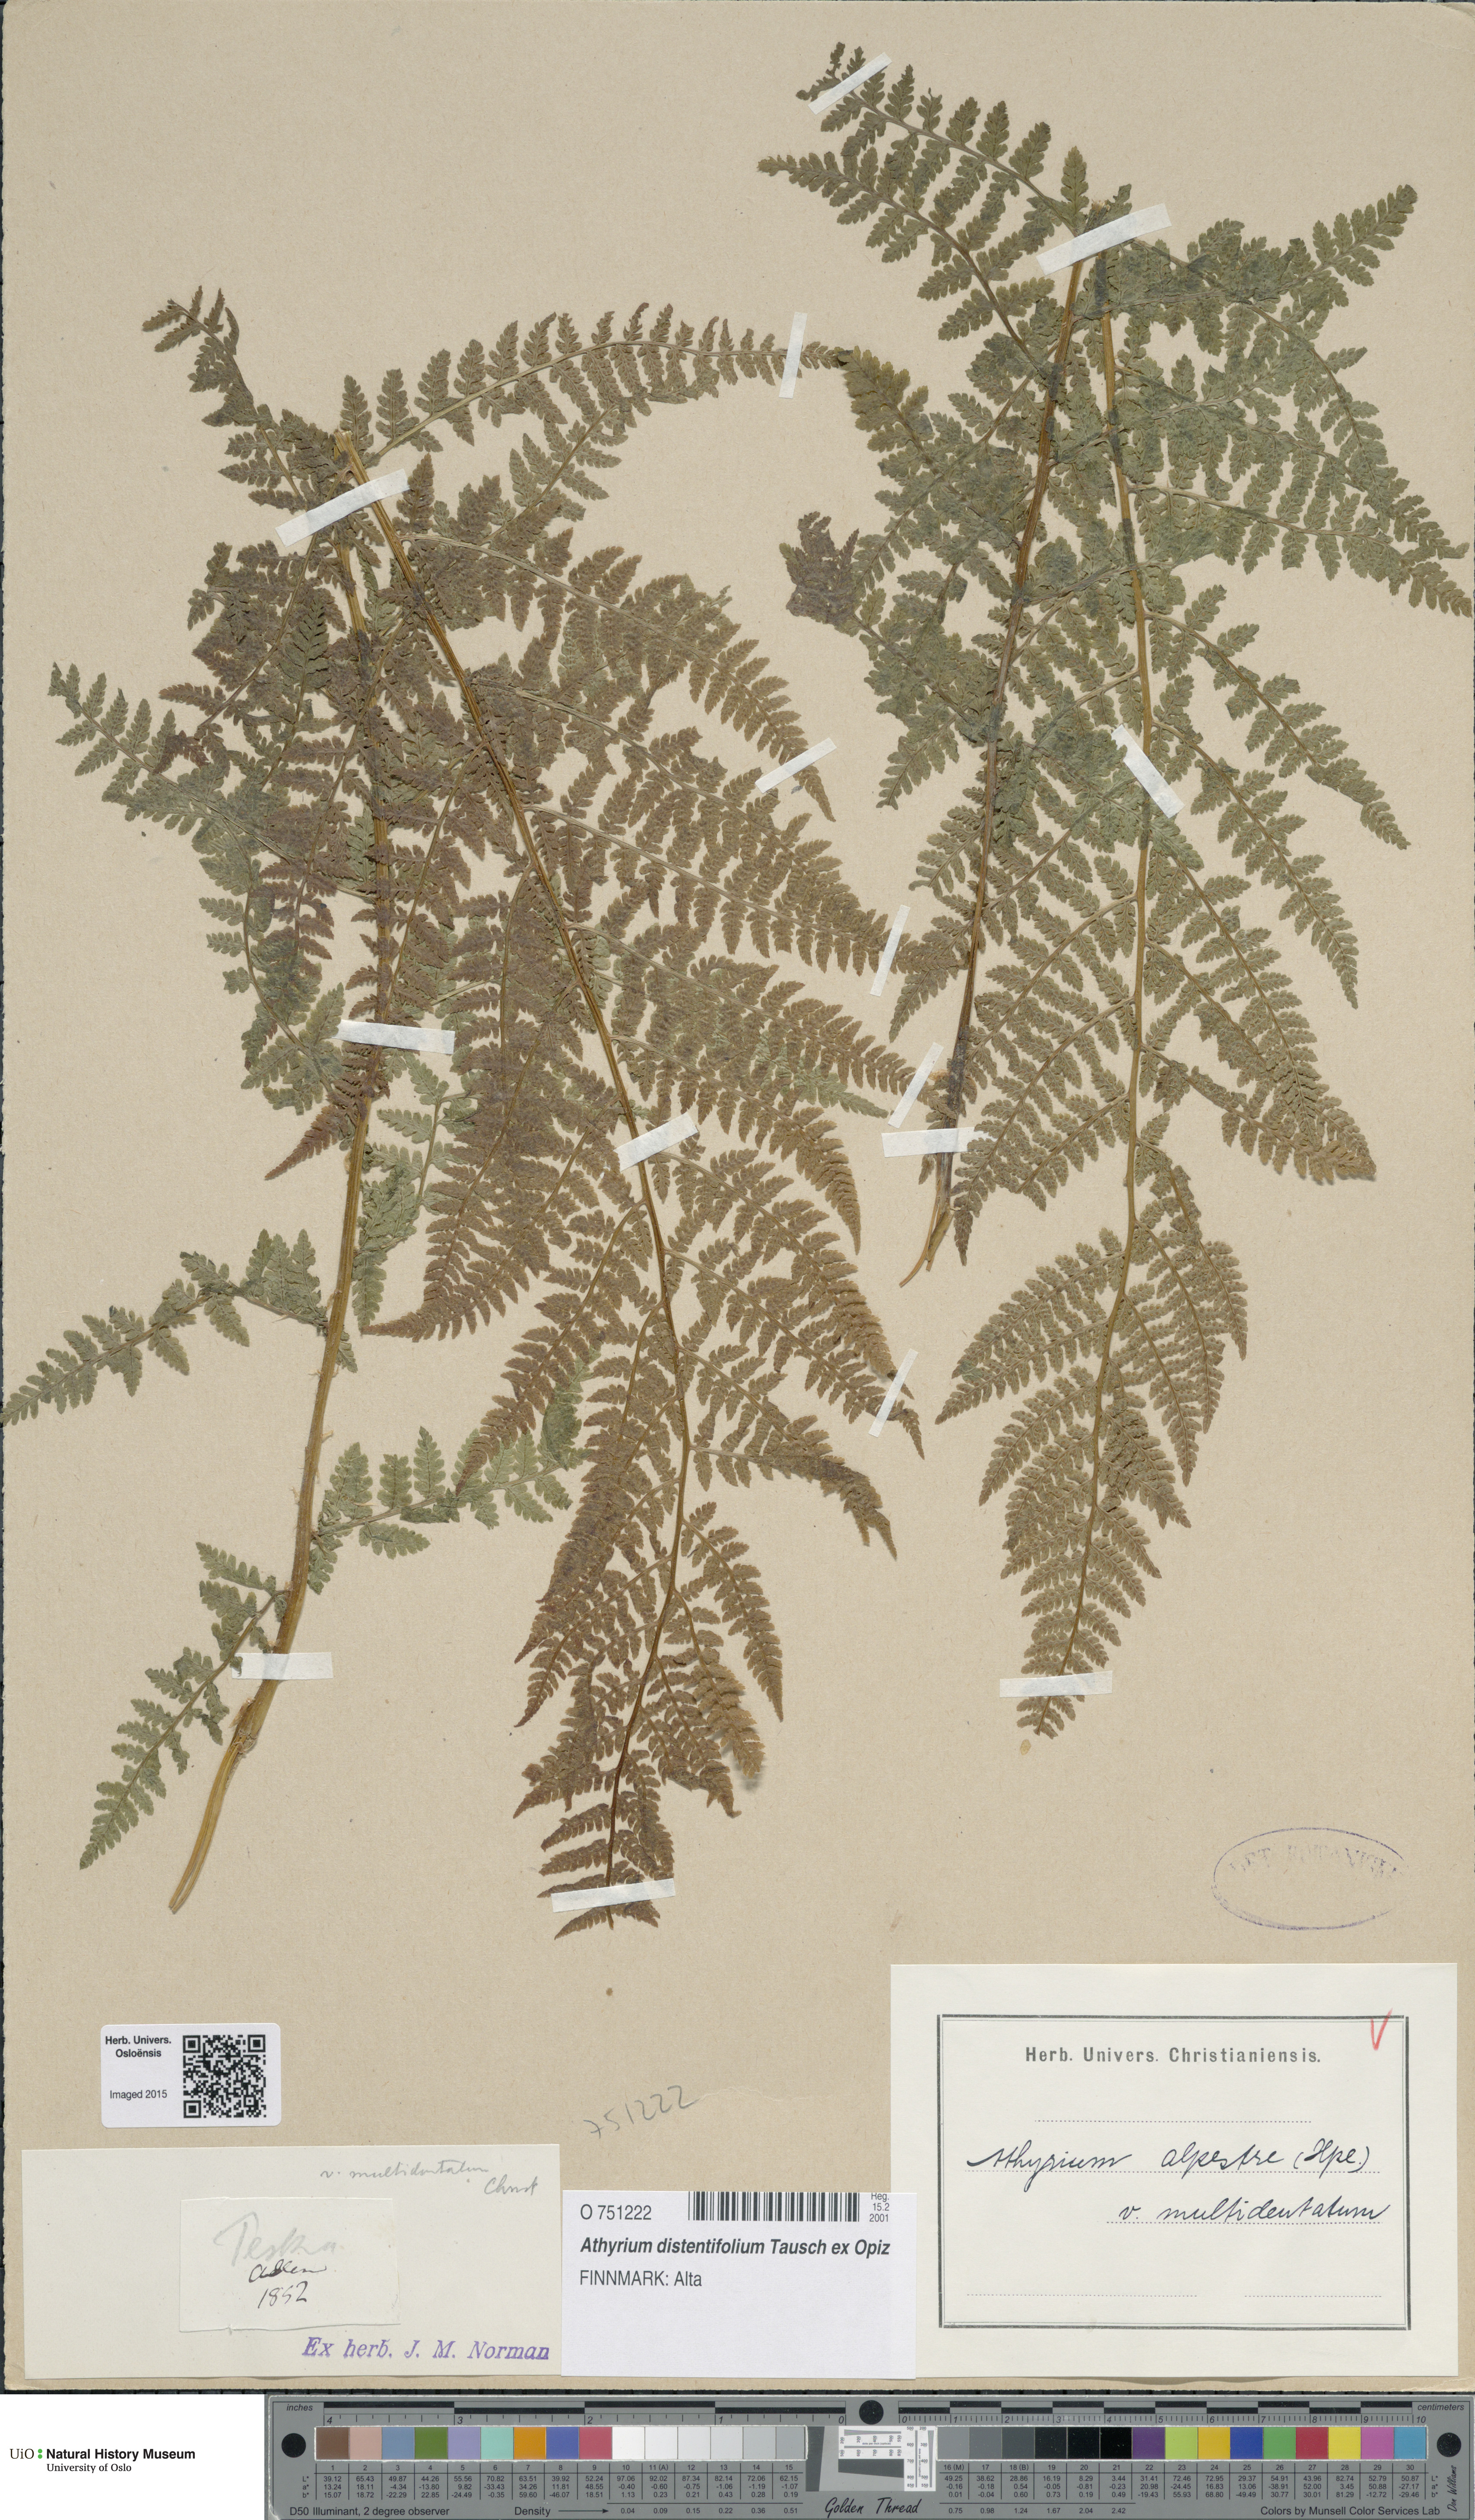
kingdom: Plantae
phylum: Tracheophyta
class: Polypodiopsida
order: Polypodiales
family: Athyriaceae
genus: Pseudathyrium
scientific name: Pseudathyrium alpestre
